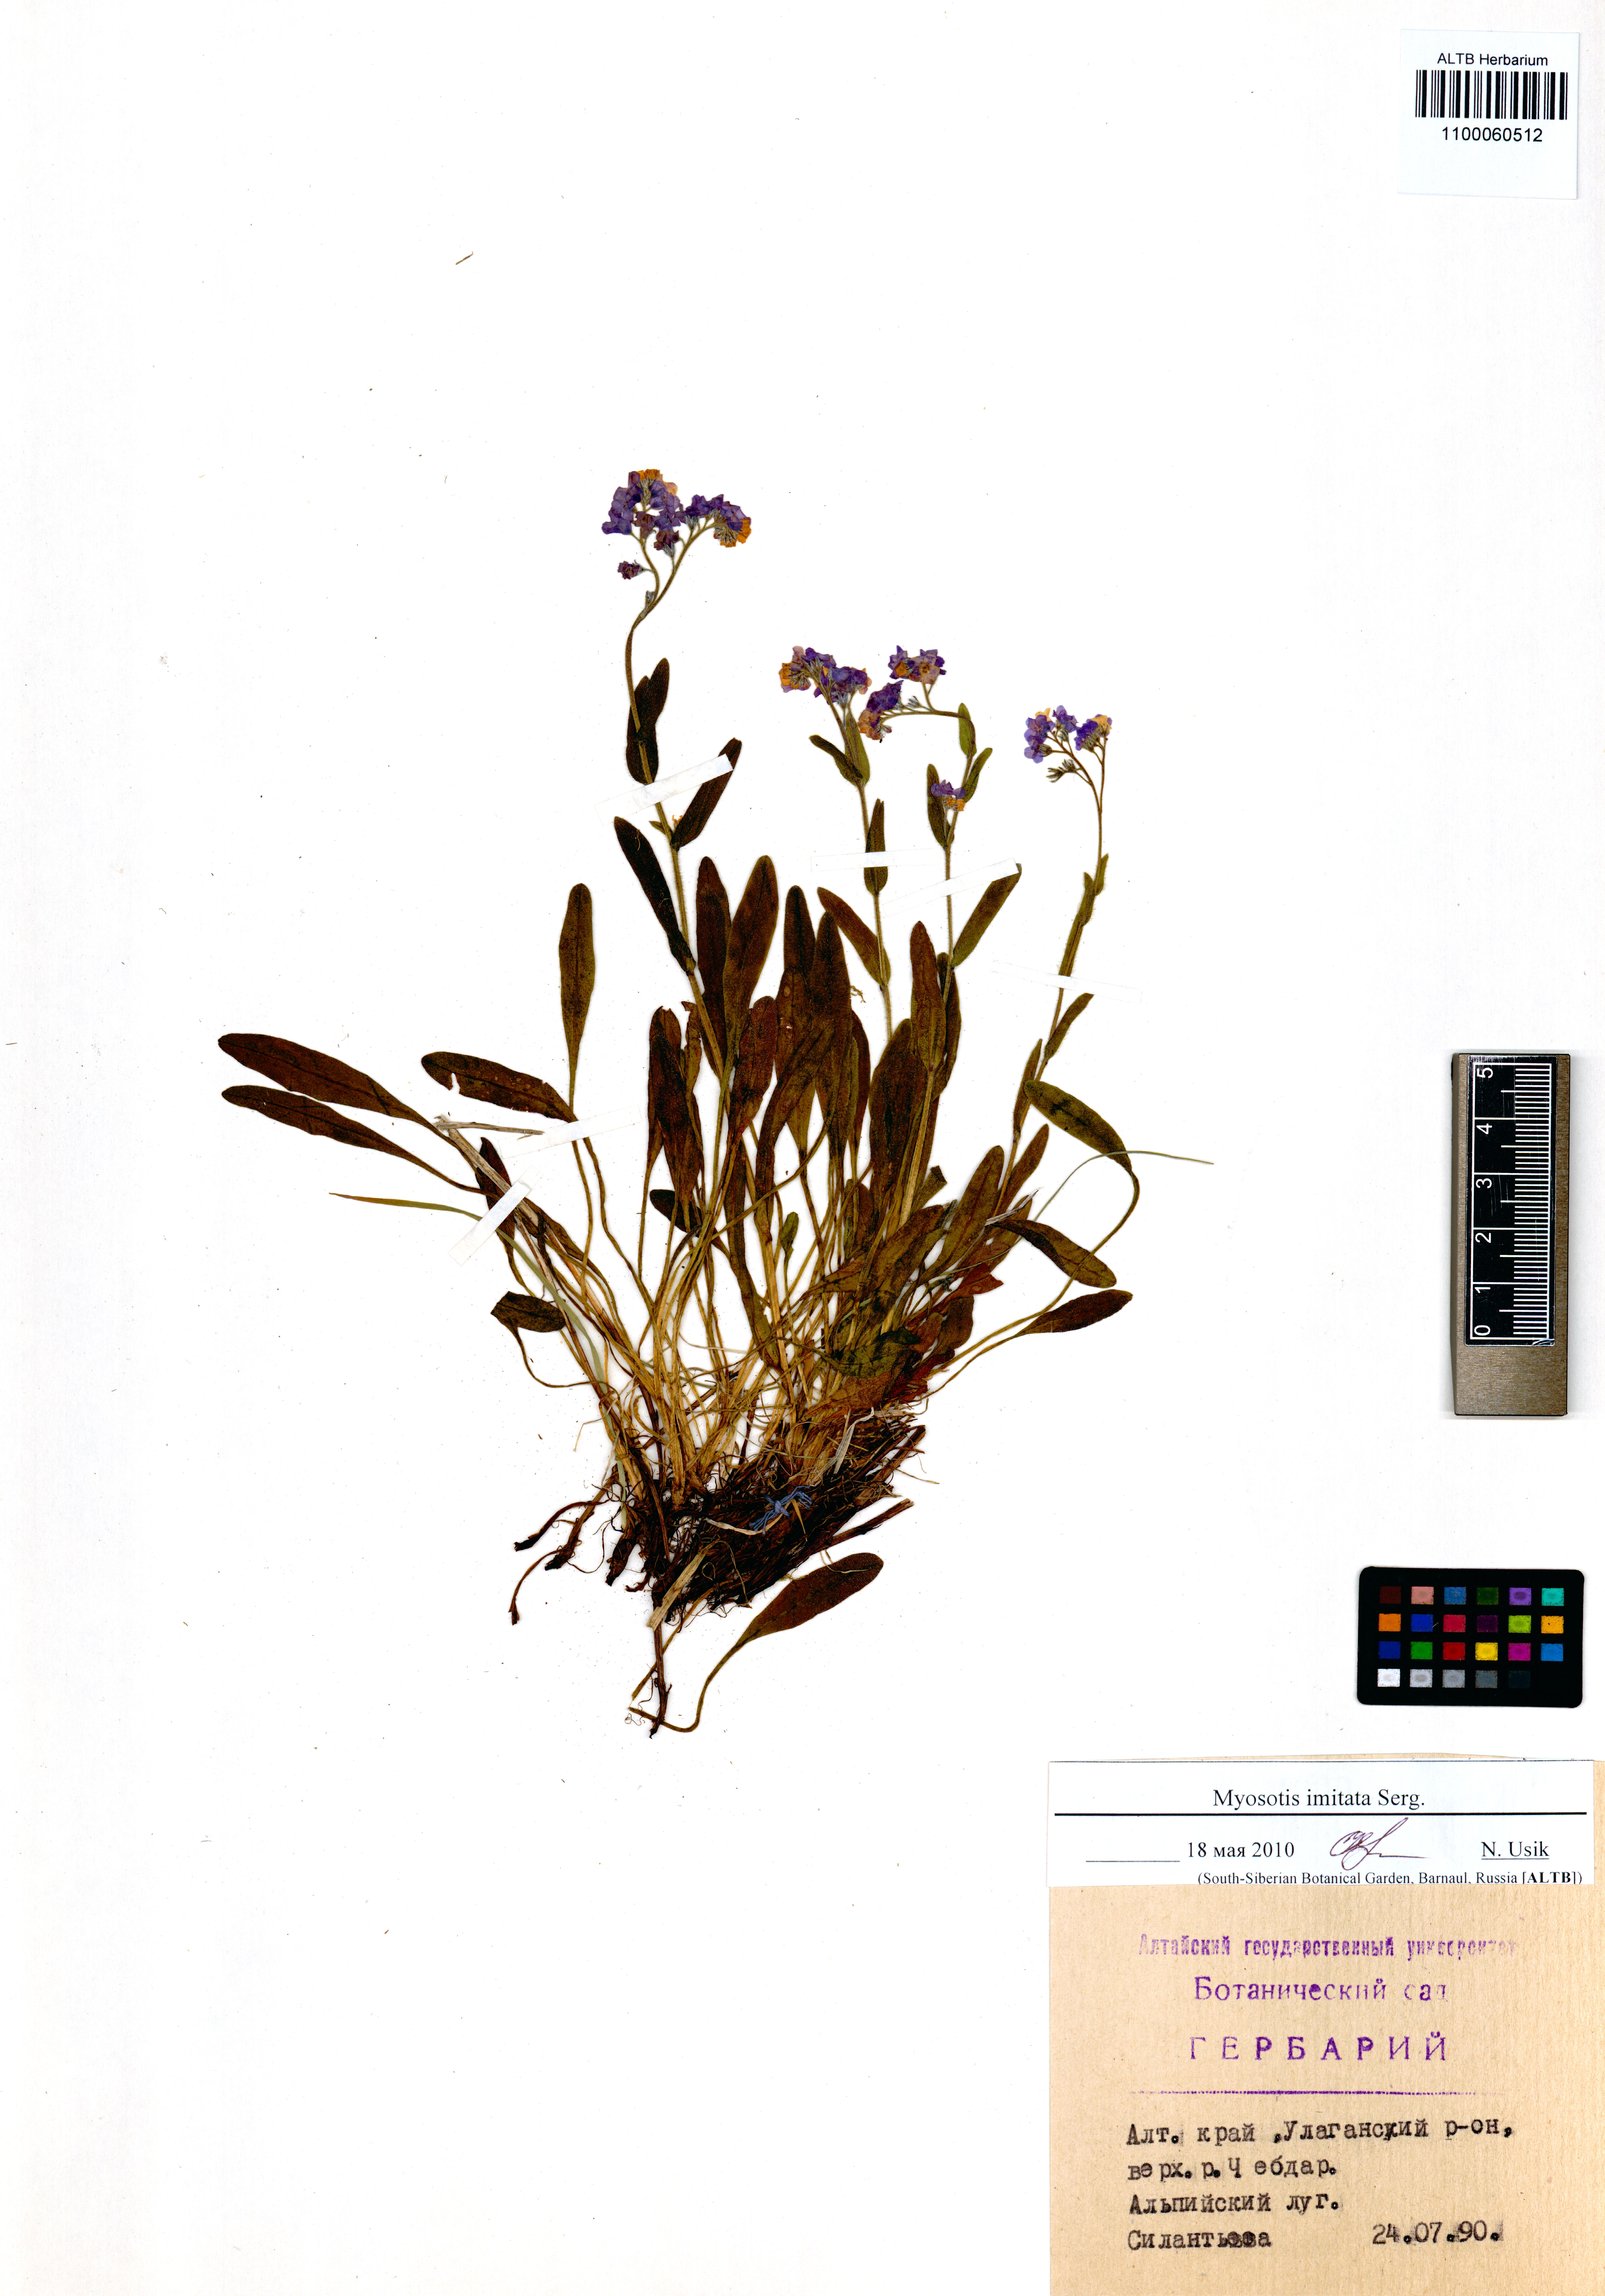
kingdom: Plantae
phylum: Tracheophyta
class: Magnoliopsida
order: Boraginales
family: Boraginaceae
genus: Myosotis
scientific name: Myosotis imitata
